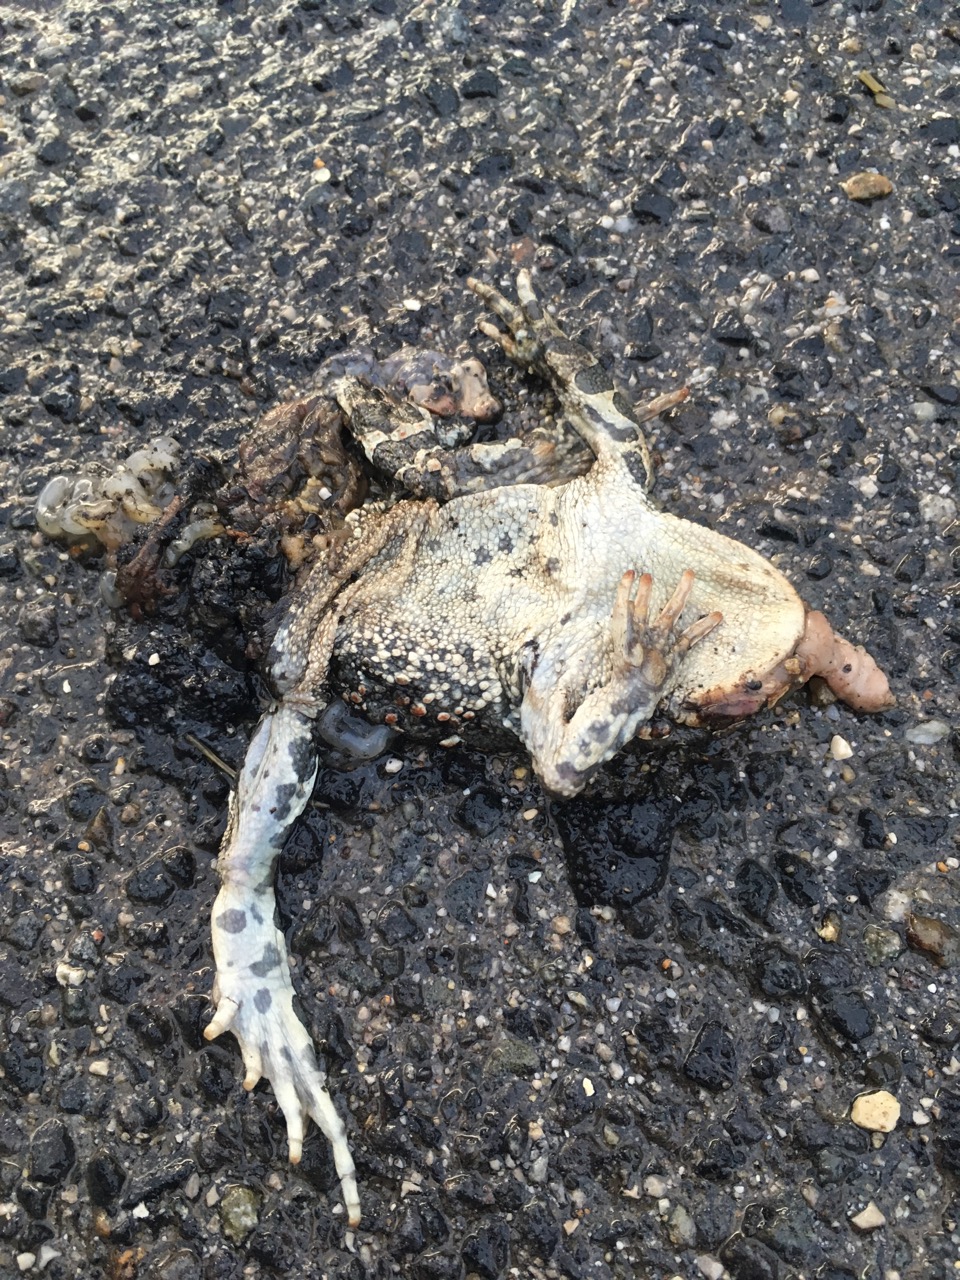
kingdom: Animalia
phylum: Chordata
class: Amphibia
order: Anura
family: Bufonidae
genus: Bufotes
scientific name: Bufotes viridis
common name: European green toad
